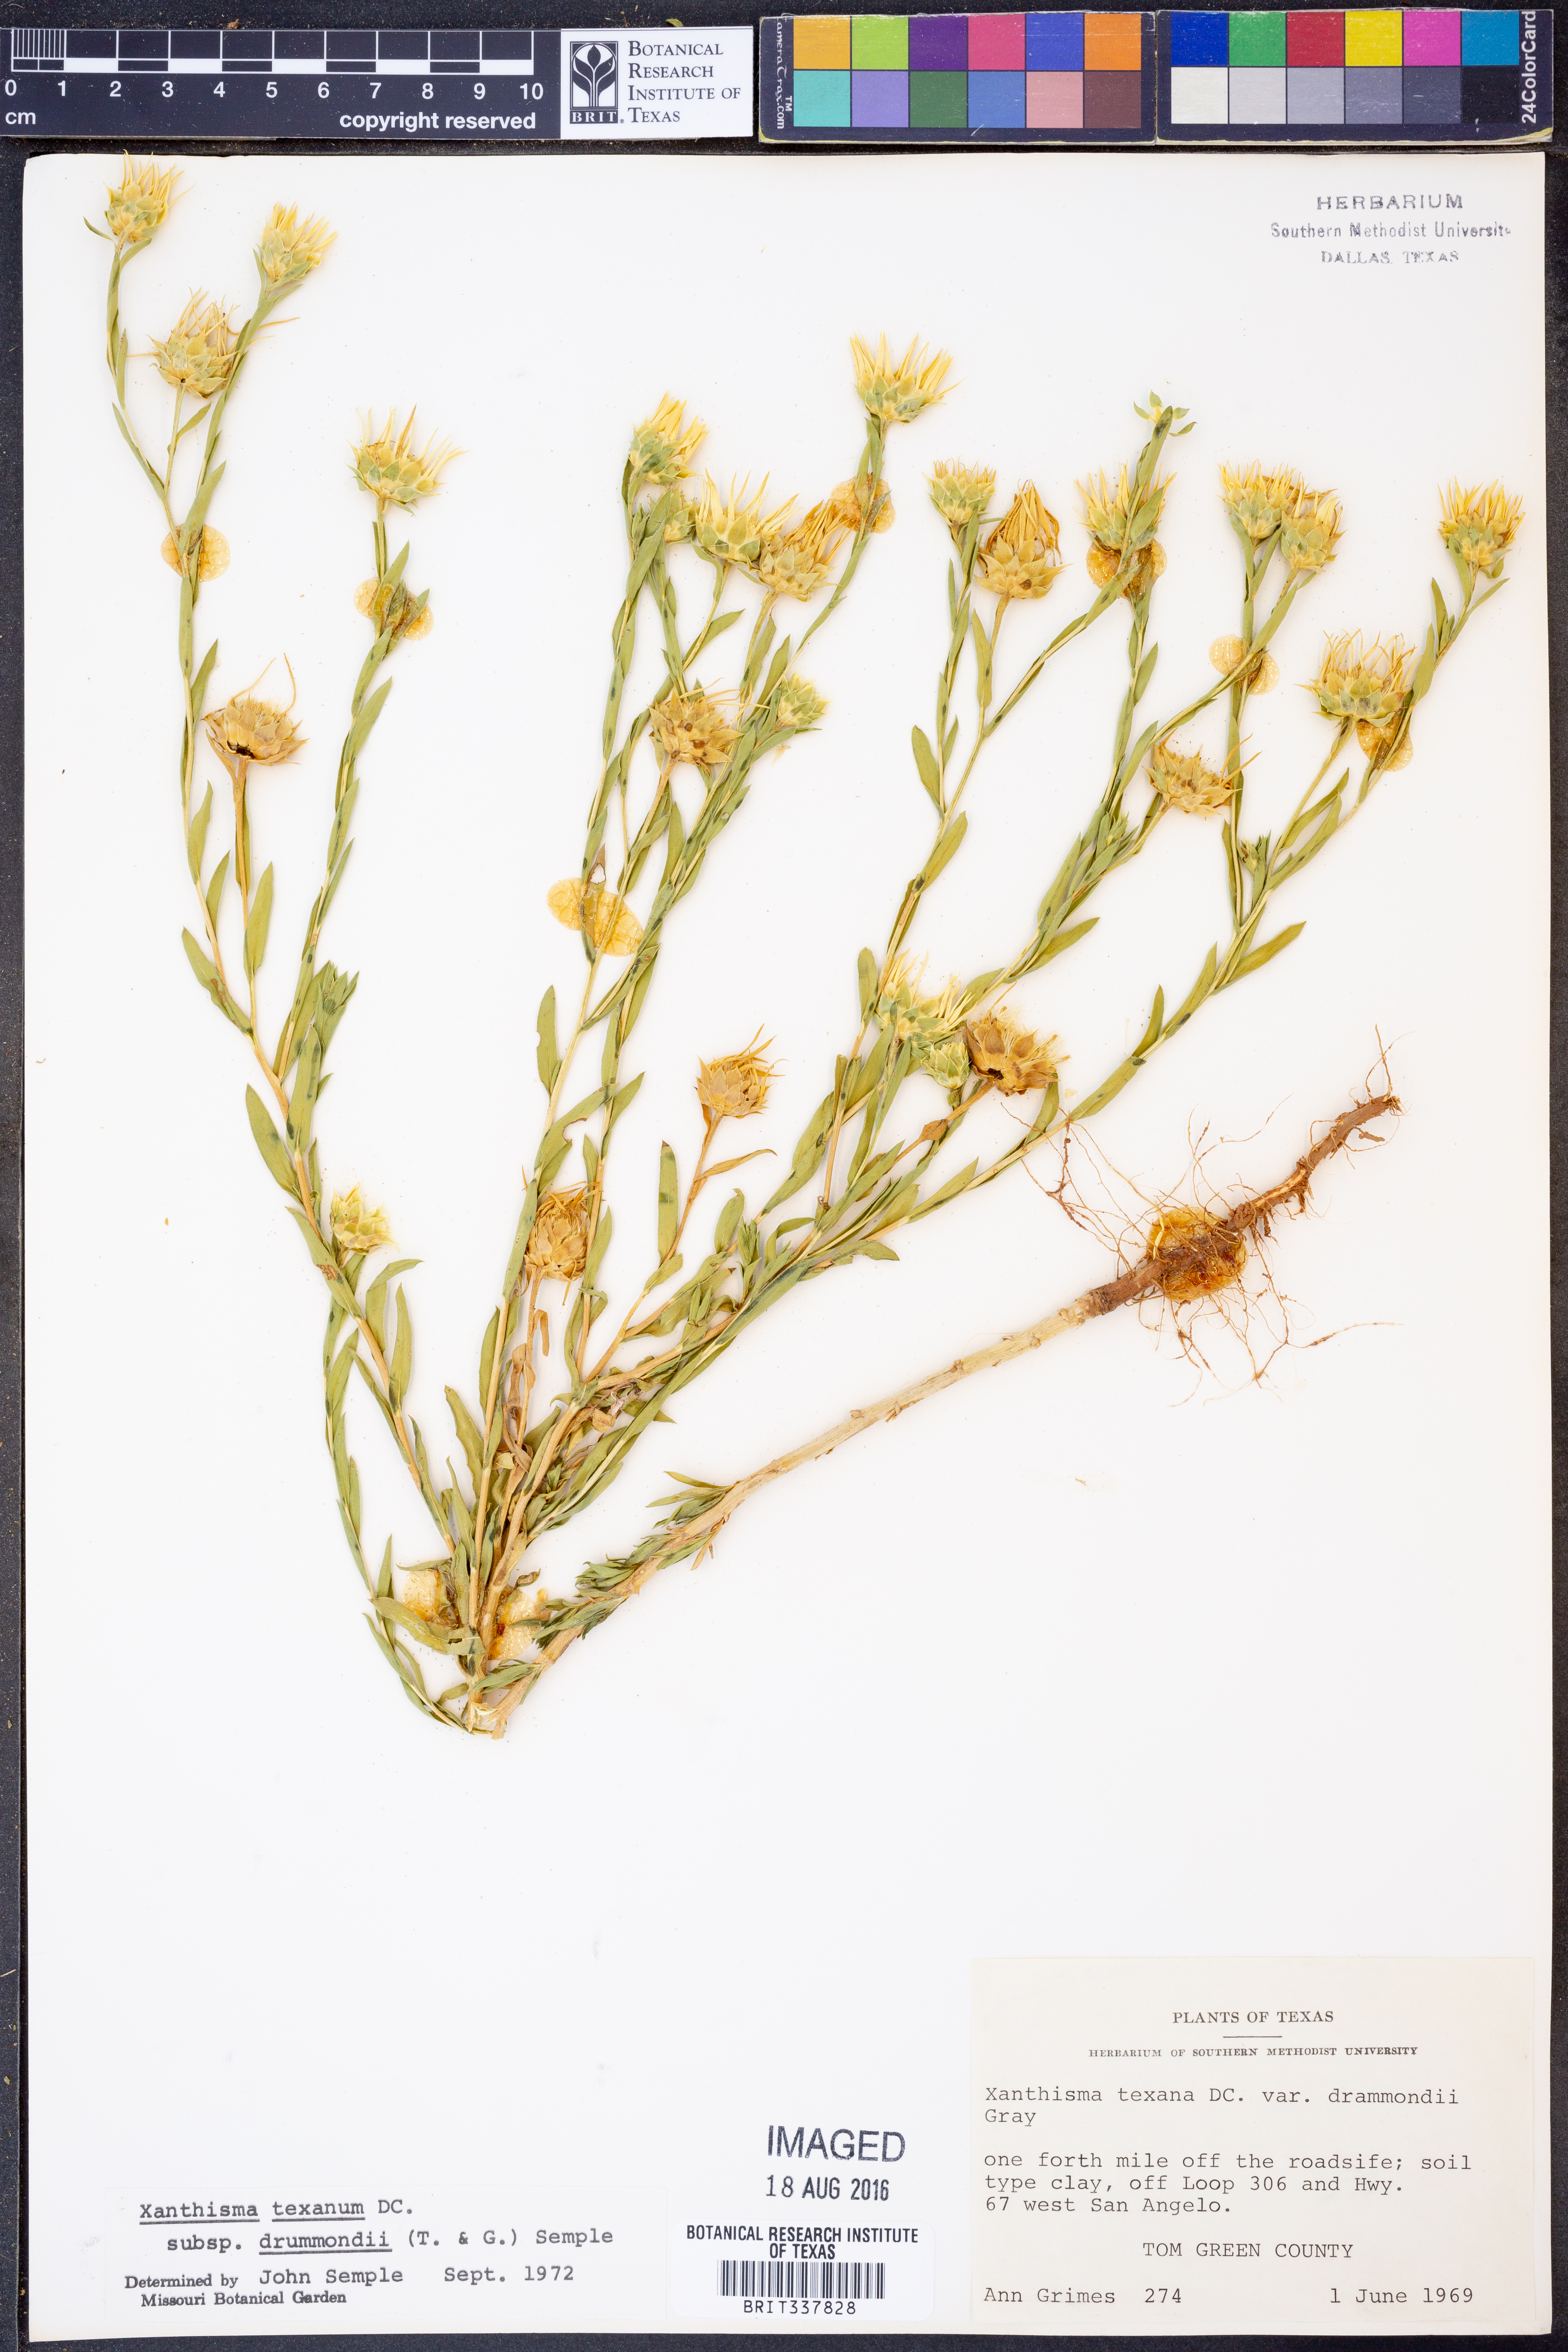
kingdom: Plantae
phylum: Tracheophyta
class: Magnoliopsida
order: Asterales
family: Asteraceae
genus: Xanthisma
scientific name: Xanthisma texanum
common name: Texas sleepy daisy
